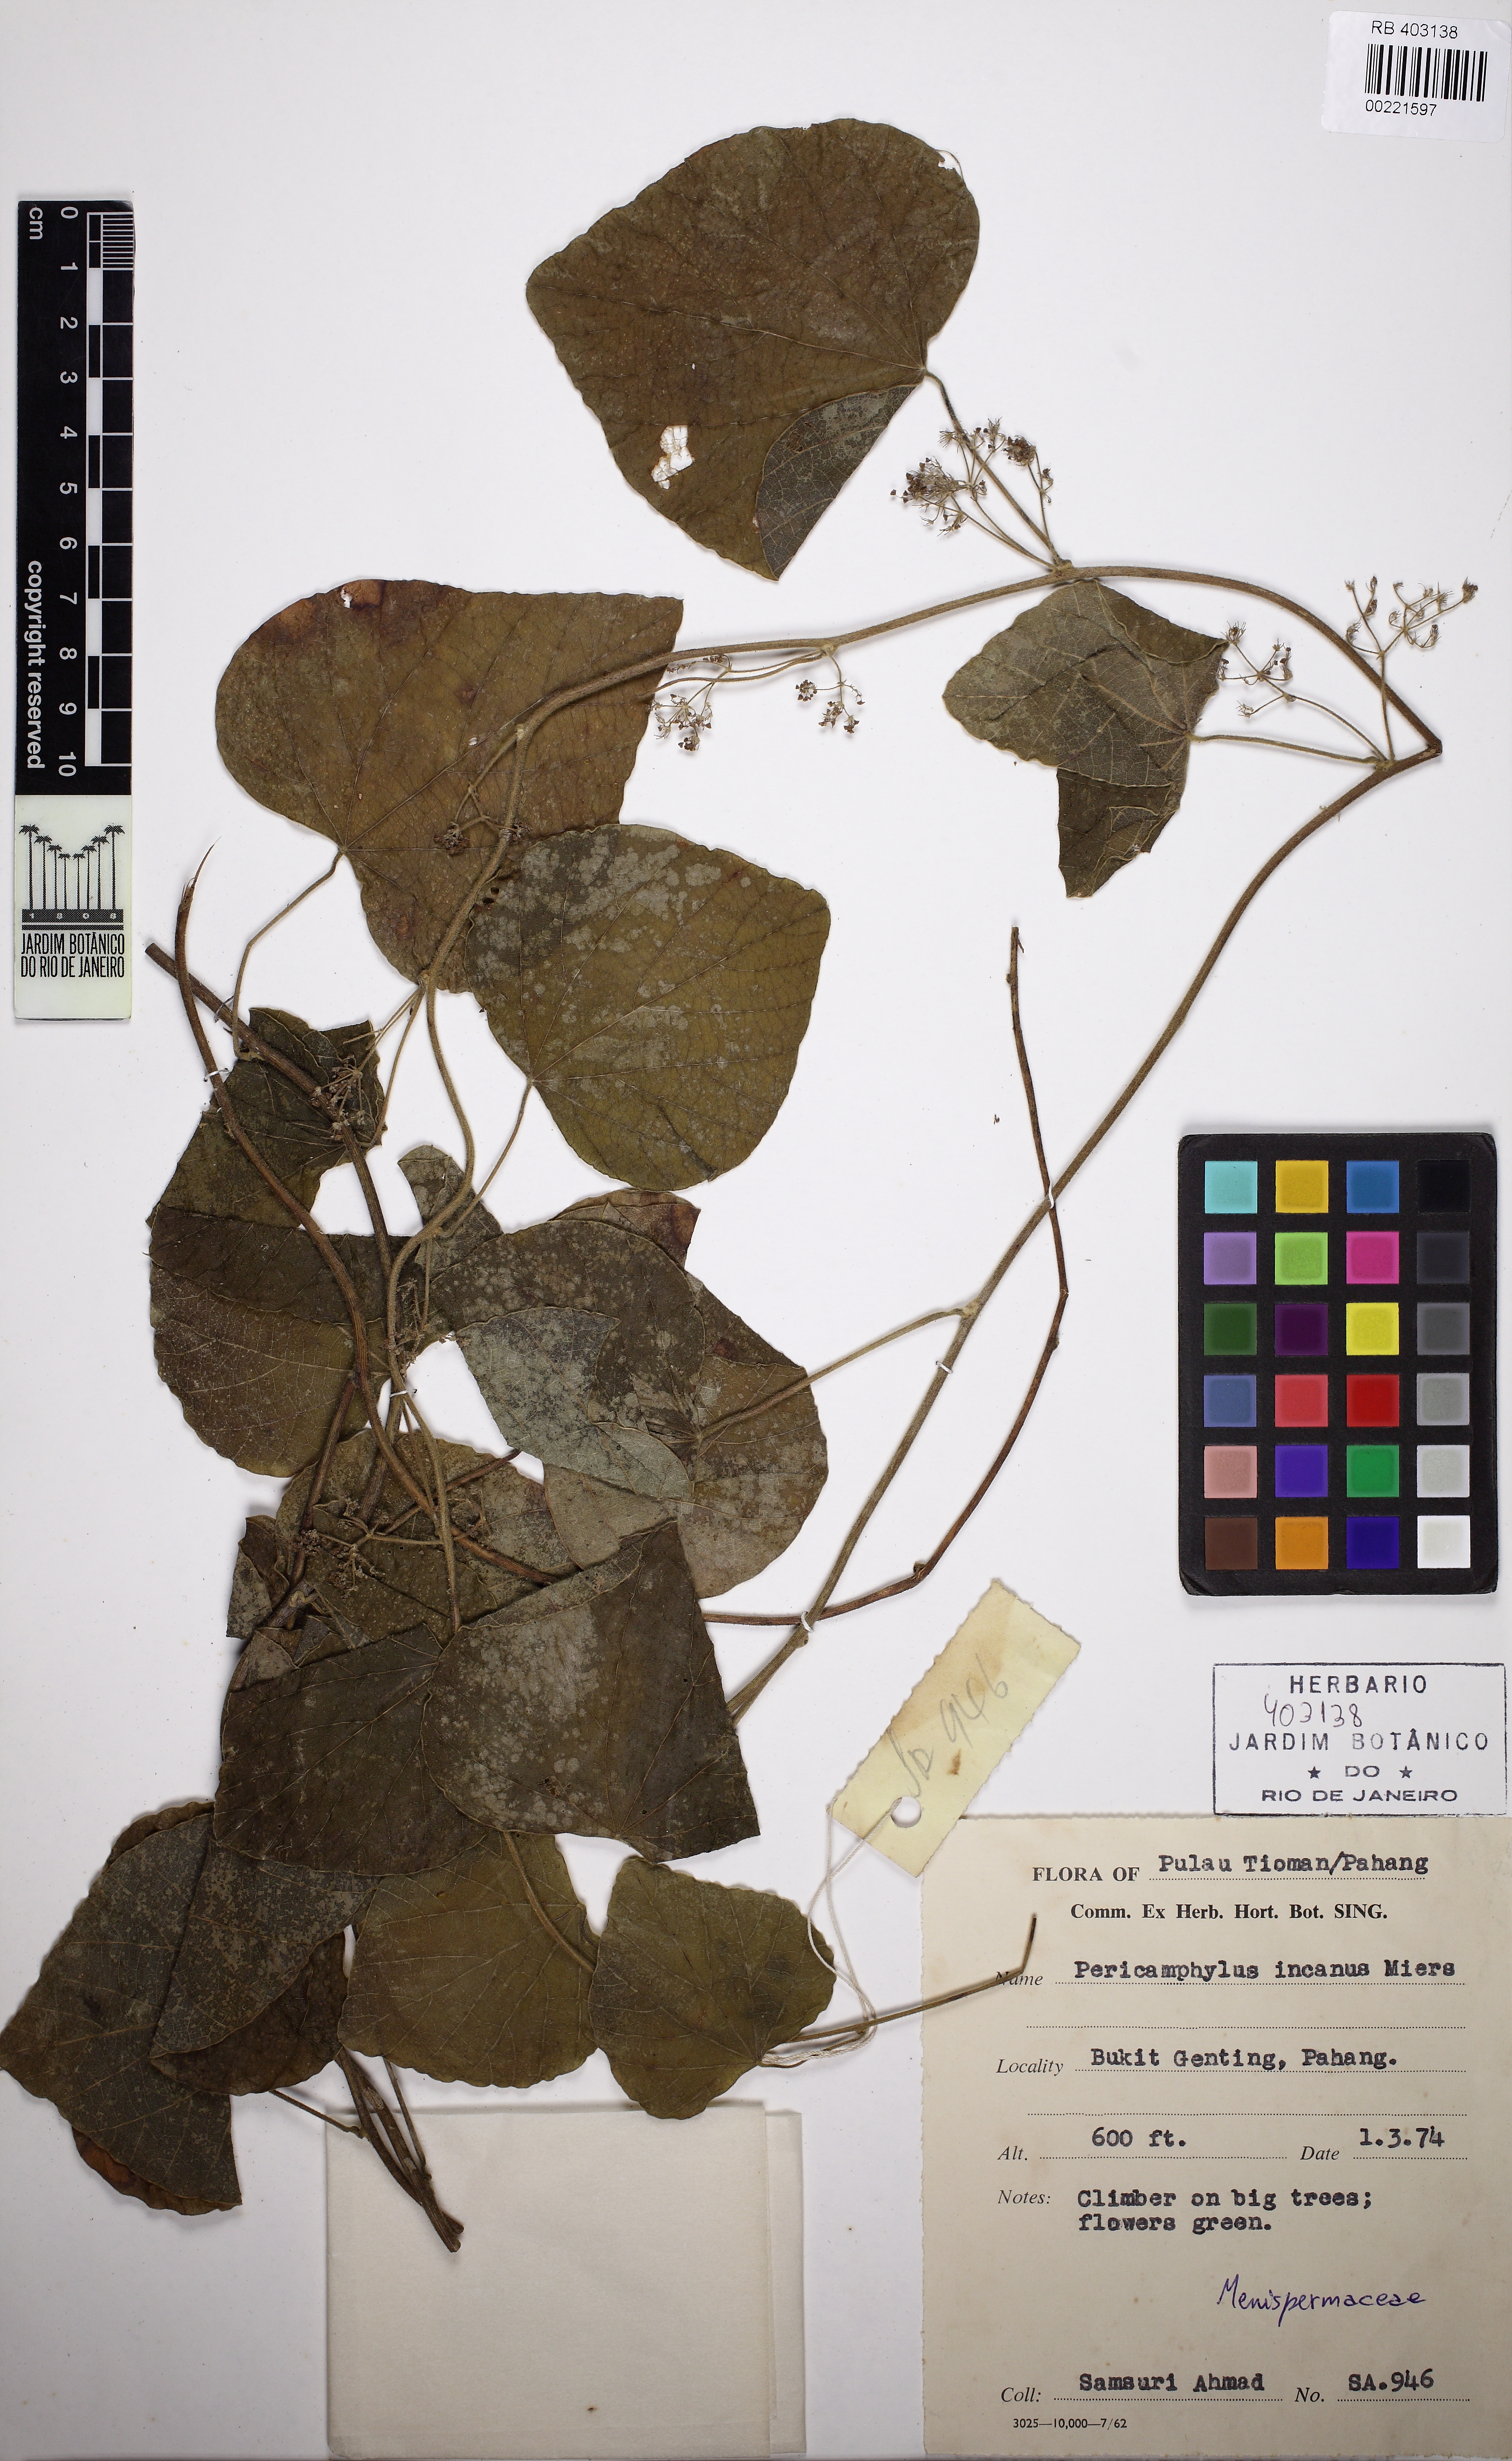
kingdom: Plantae
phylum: Tracheophyta
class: Magnoliopsida
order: Ranunculales
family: Menispermaceae
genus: Pericampylus
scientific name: Pericampylus incanus
